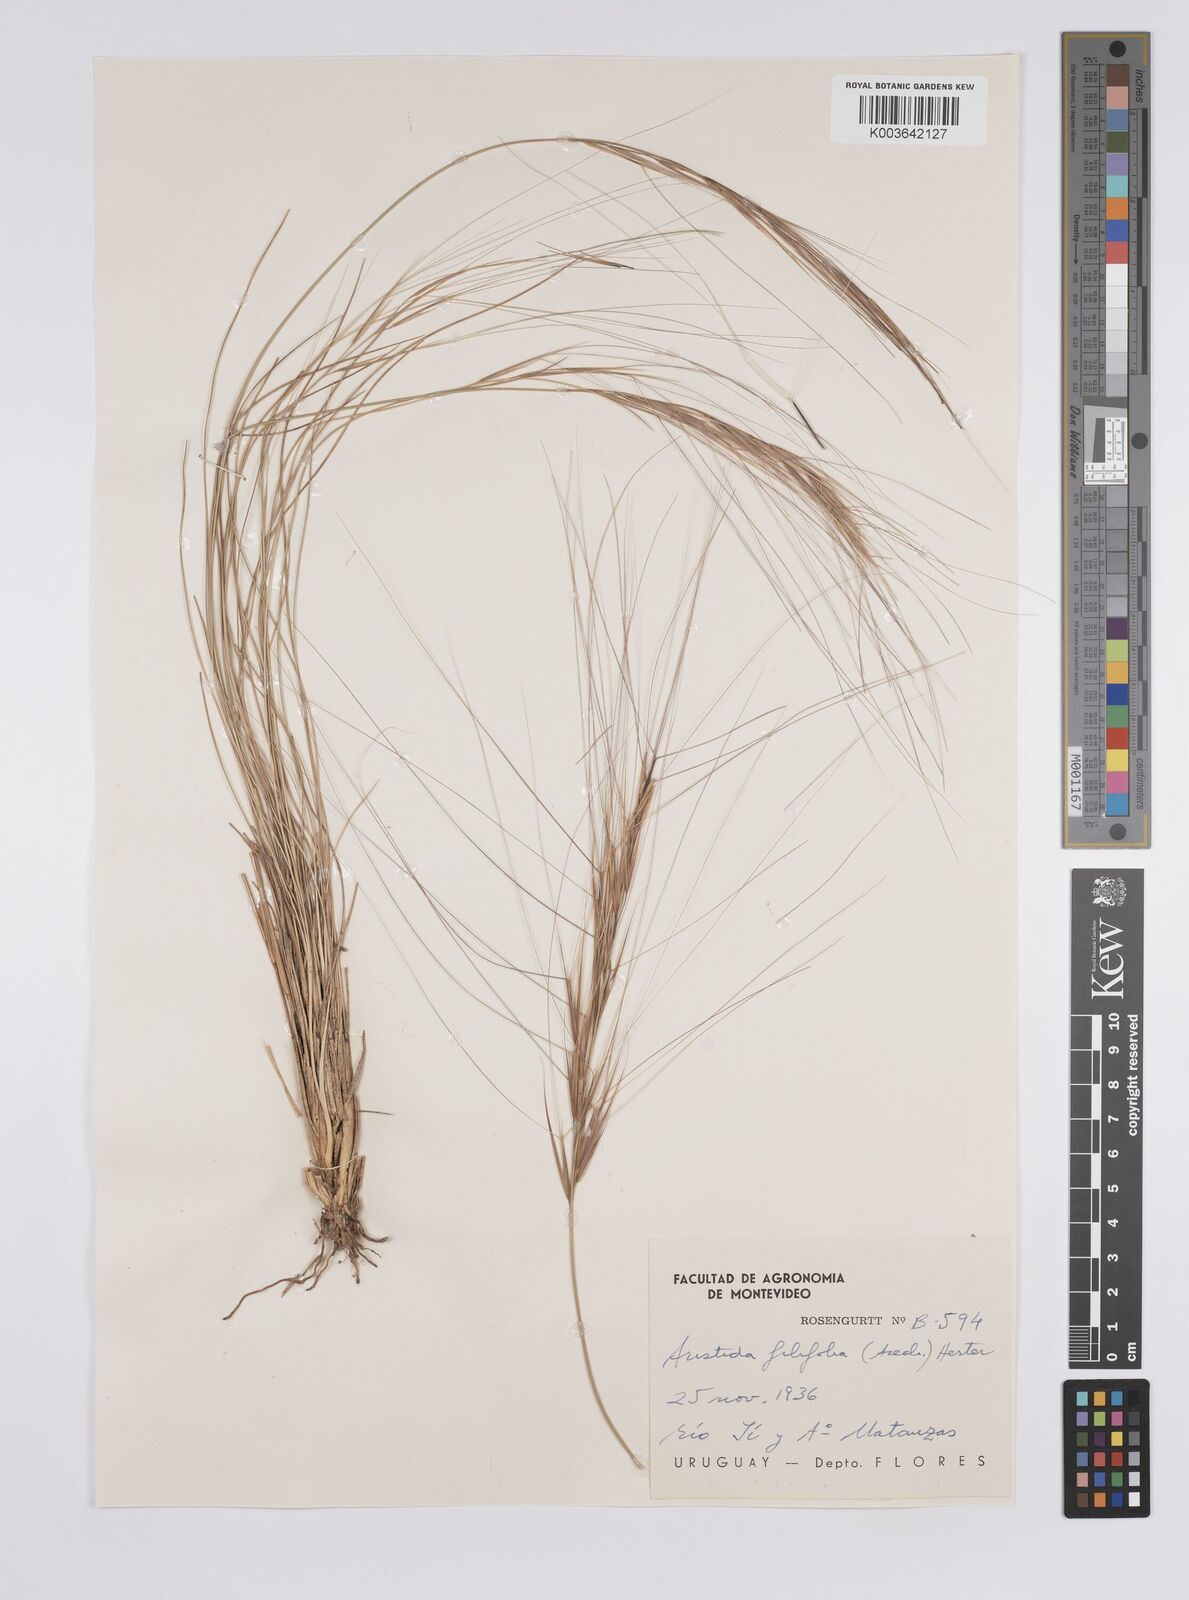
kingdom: Plantae
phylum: Tracheophyta
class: Liliopsida
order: Poales
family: Poaceae
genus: Aristida
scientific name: Aristida filifolia
